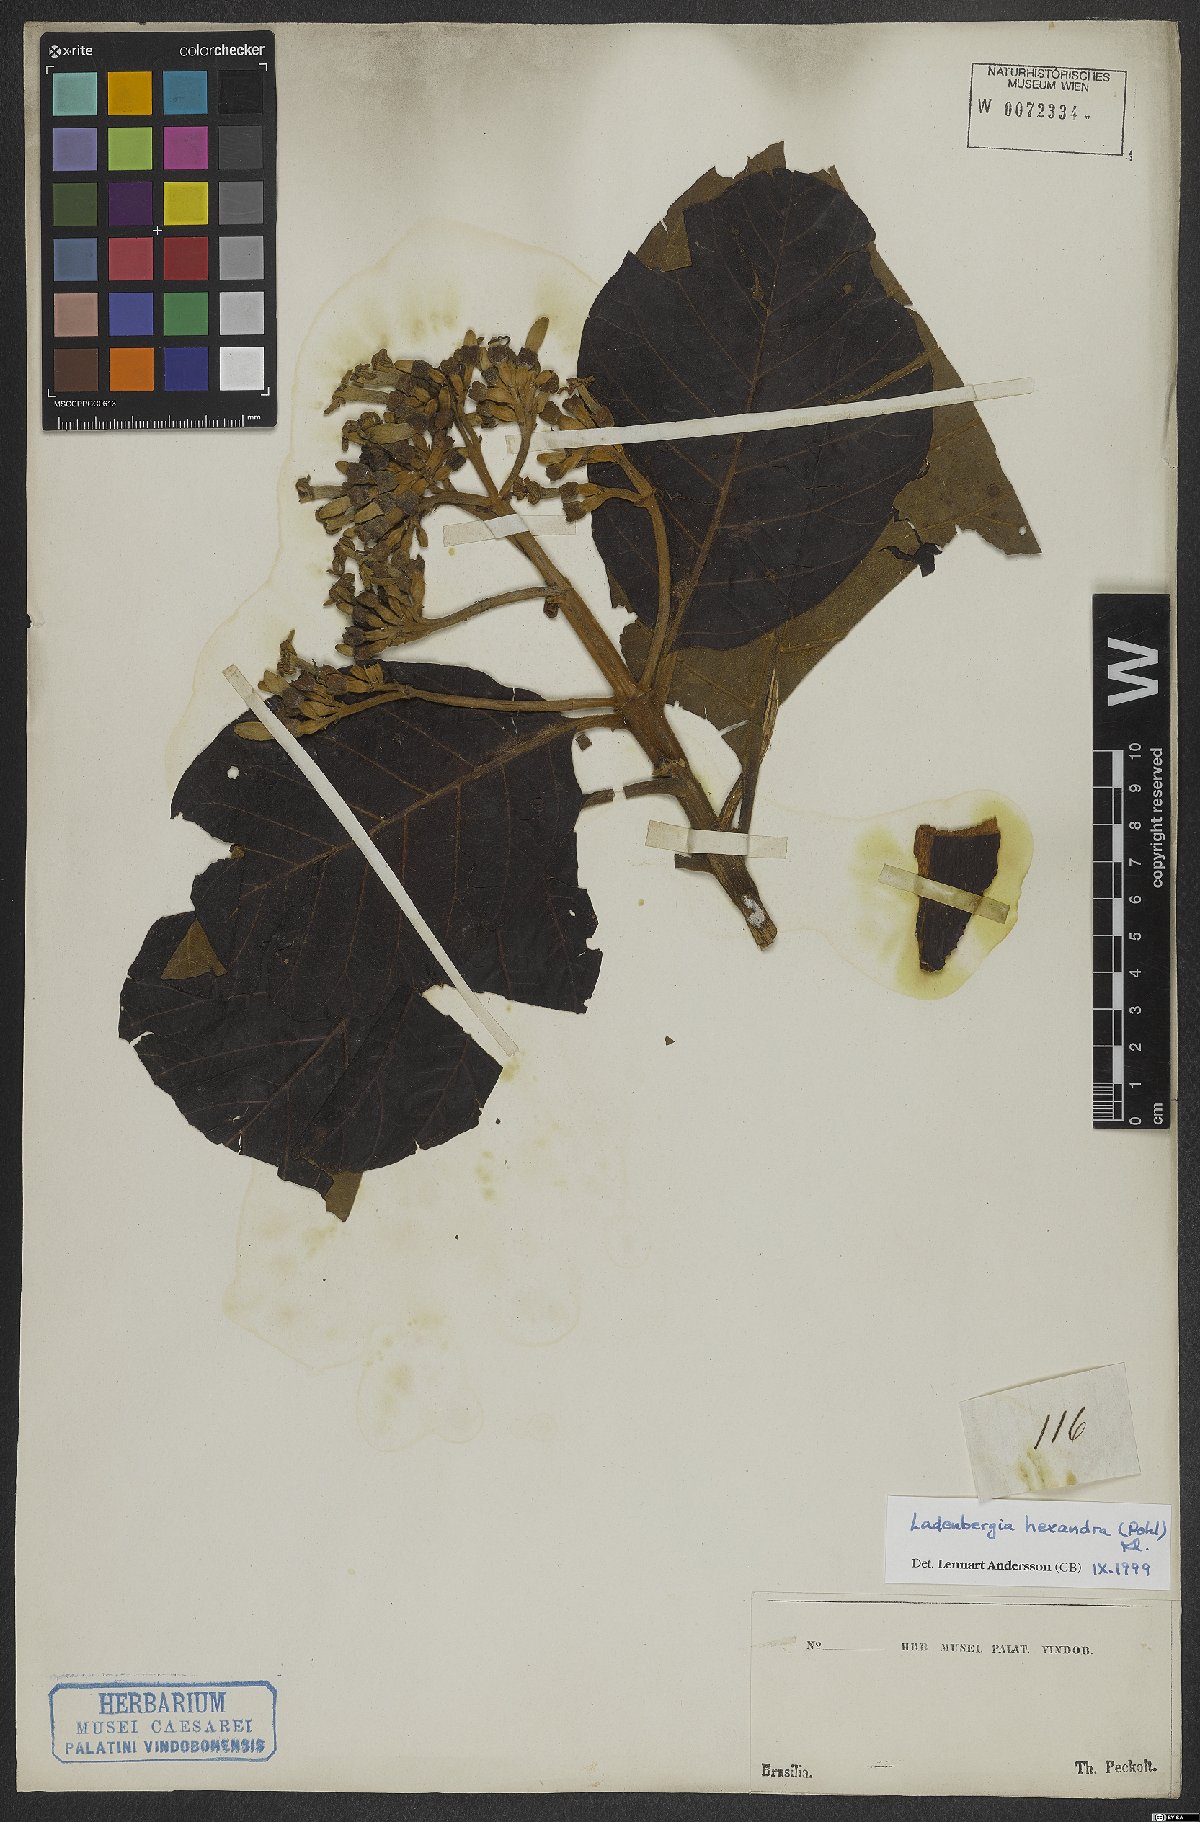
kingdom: Plantae
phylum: Tracheophyta
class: Magnoliopsida
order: Gentianales
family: Rubiaceae
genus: Ladenbergia
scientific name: Ladenbergia hexandra
